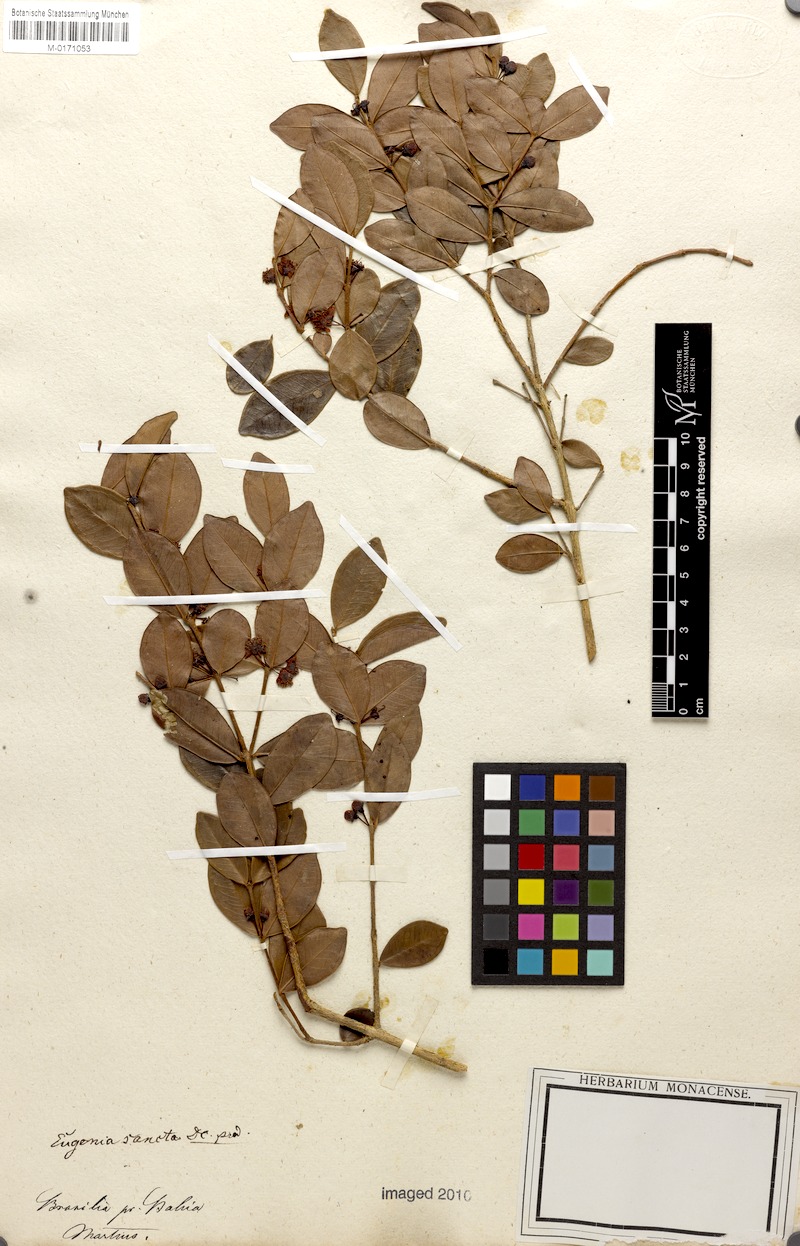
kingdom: Plantae
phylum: Tracheophyta
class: Magnoliopsida
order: Myrtales
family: Myrtaceae
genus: Eugenia
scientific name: Eugenia punicifolia
